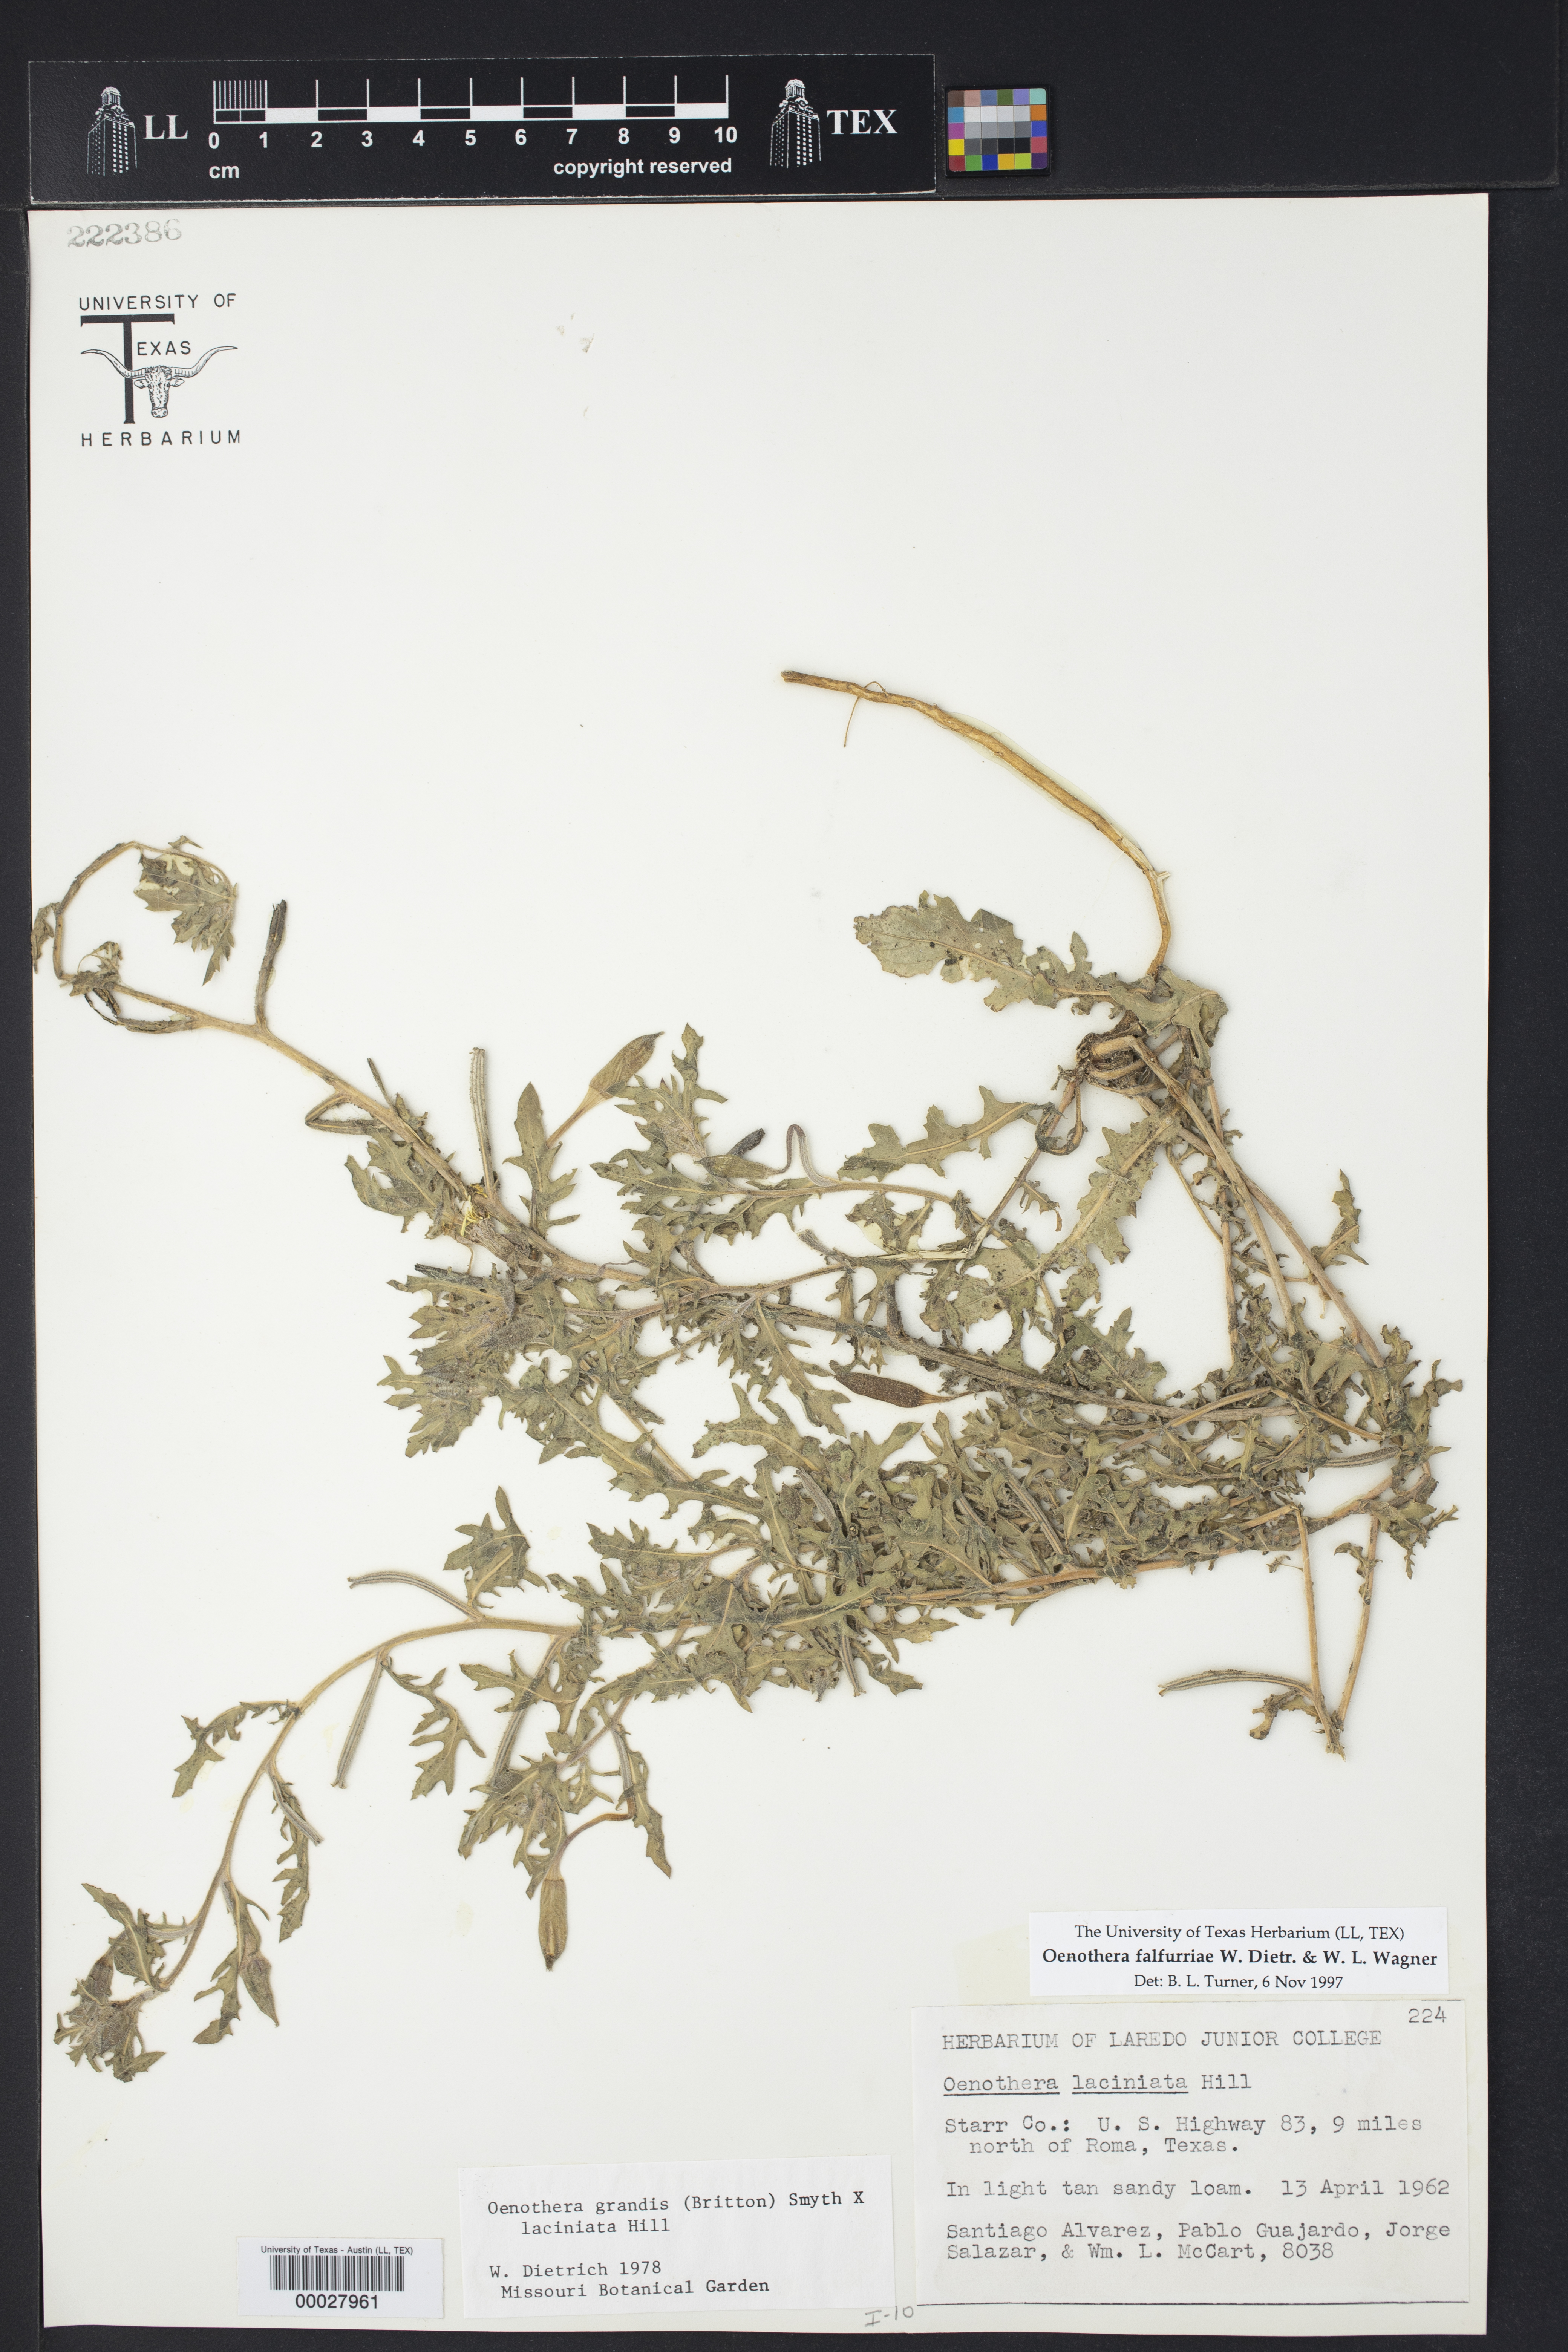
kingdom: Plantae
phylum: Tracheophyta
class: Magnoliopsida
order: Myrtales
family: Onagraceae
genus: Oenothera
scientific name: Oenothera falfurriae
